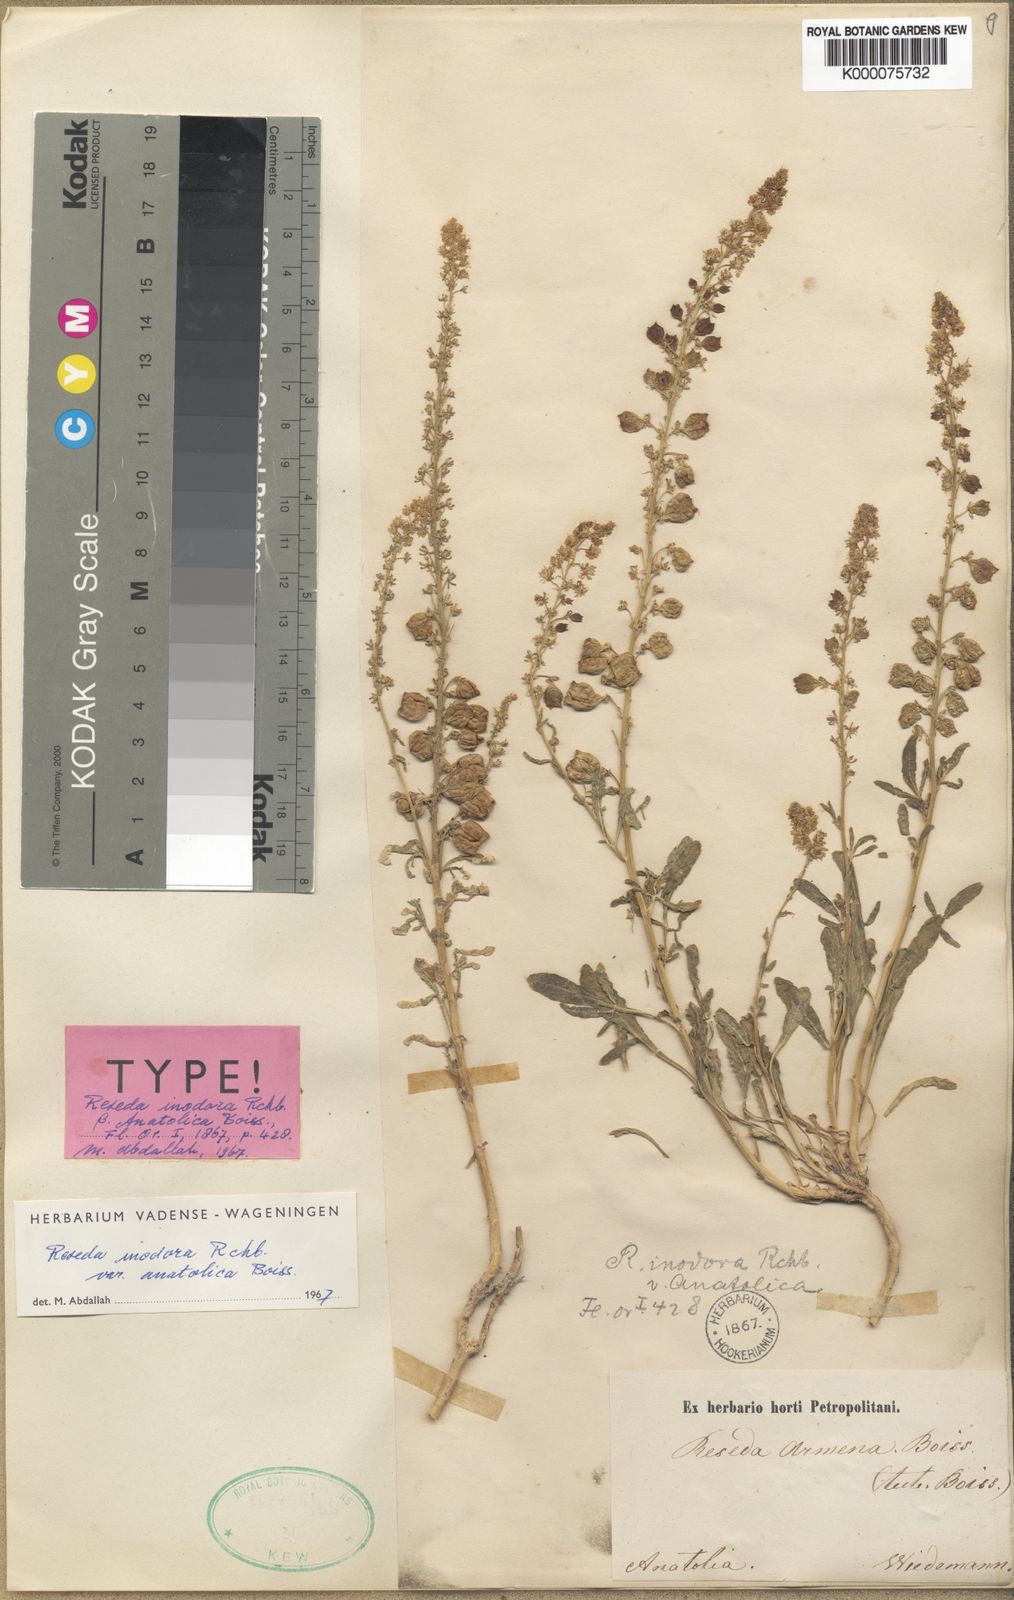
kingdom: Plantae
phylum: Tracheophyta
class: Magnoliopsida
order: Brassicales
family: Resedaceae
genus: Reseda
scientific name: Reseda inodora
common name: Scentless mignonette
